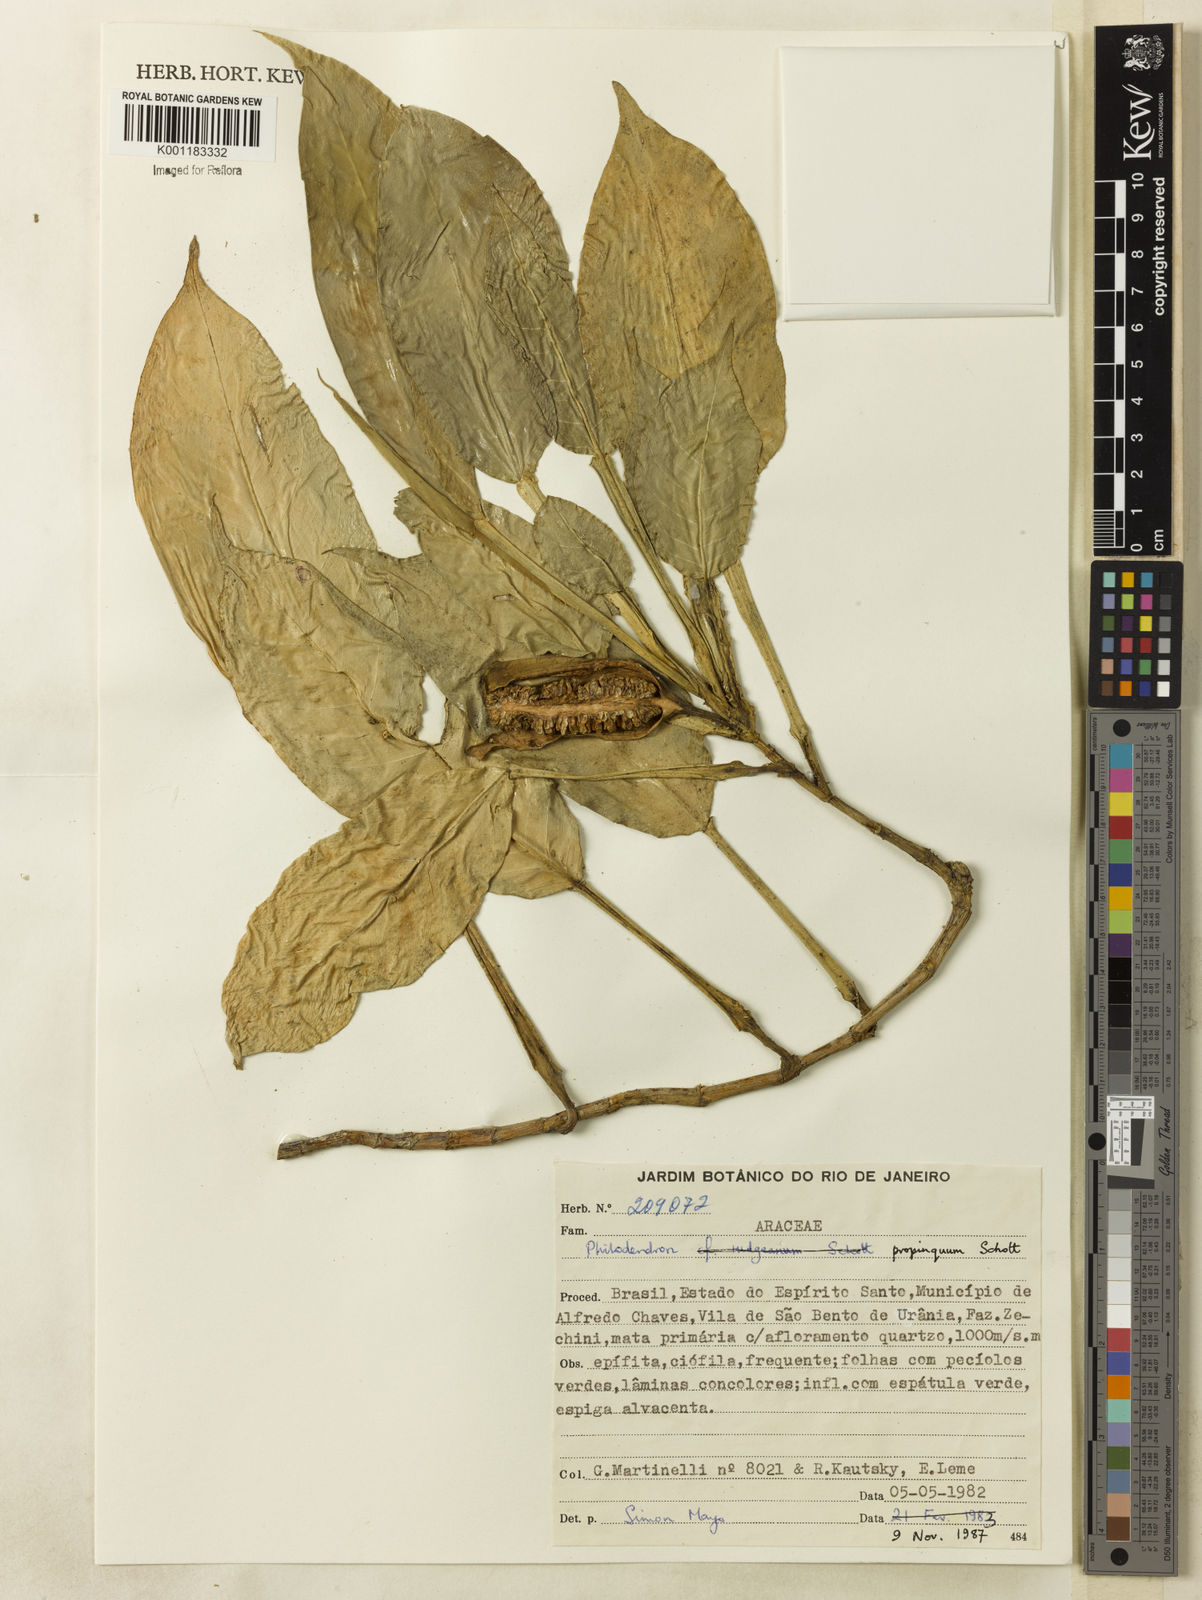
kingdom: Plantae
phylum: Tracheophyta
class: Liliopsida
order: Alismatales
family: Araceae
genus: Philodendron
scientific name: Philodendron propinquum
